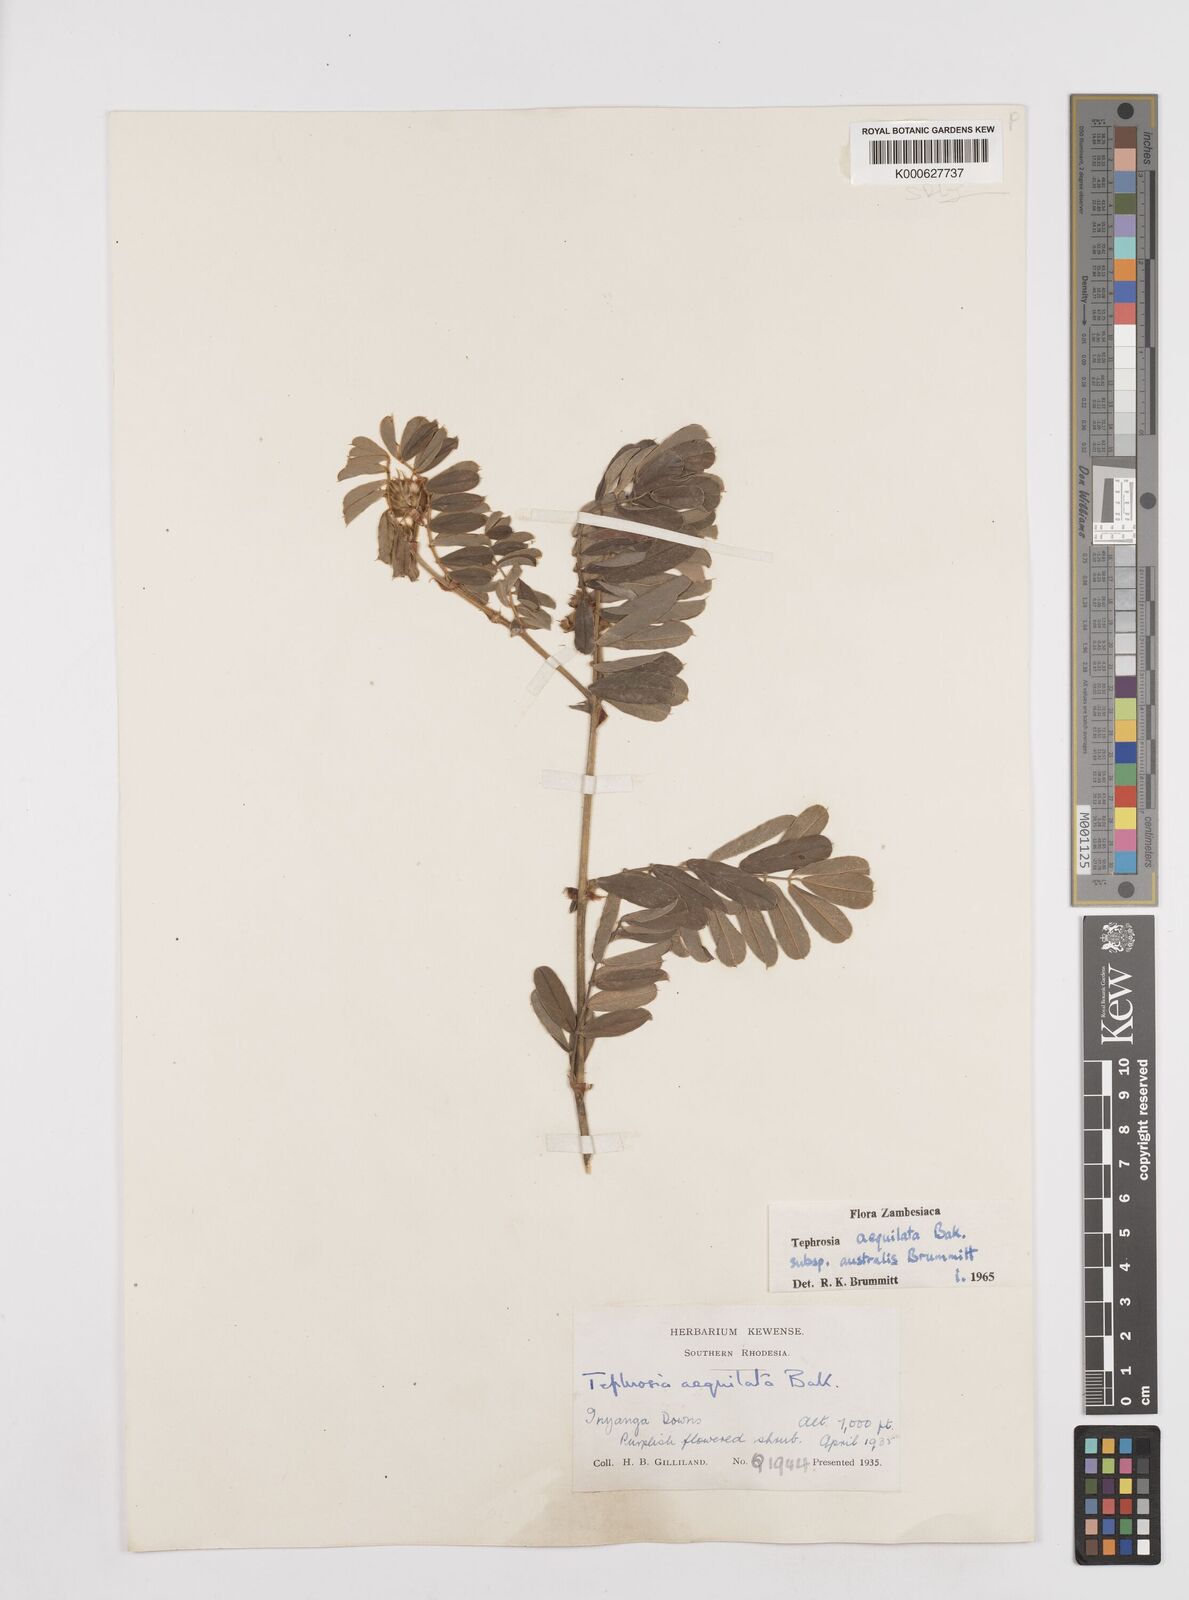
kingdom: Plantae
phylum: Tracheophyta
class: Magnoliopsida
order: Fabales
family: Fabaceae
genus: Tephrosia
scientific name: Tephrosia
